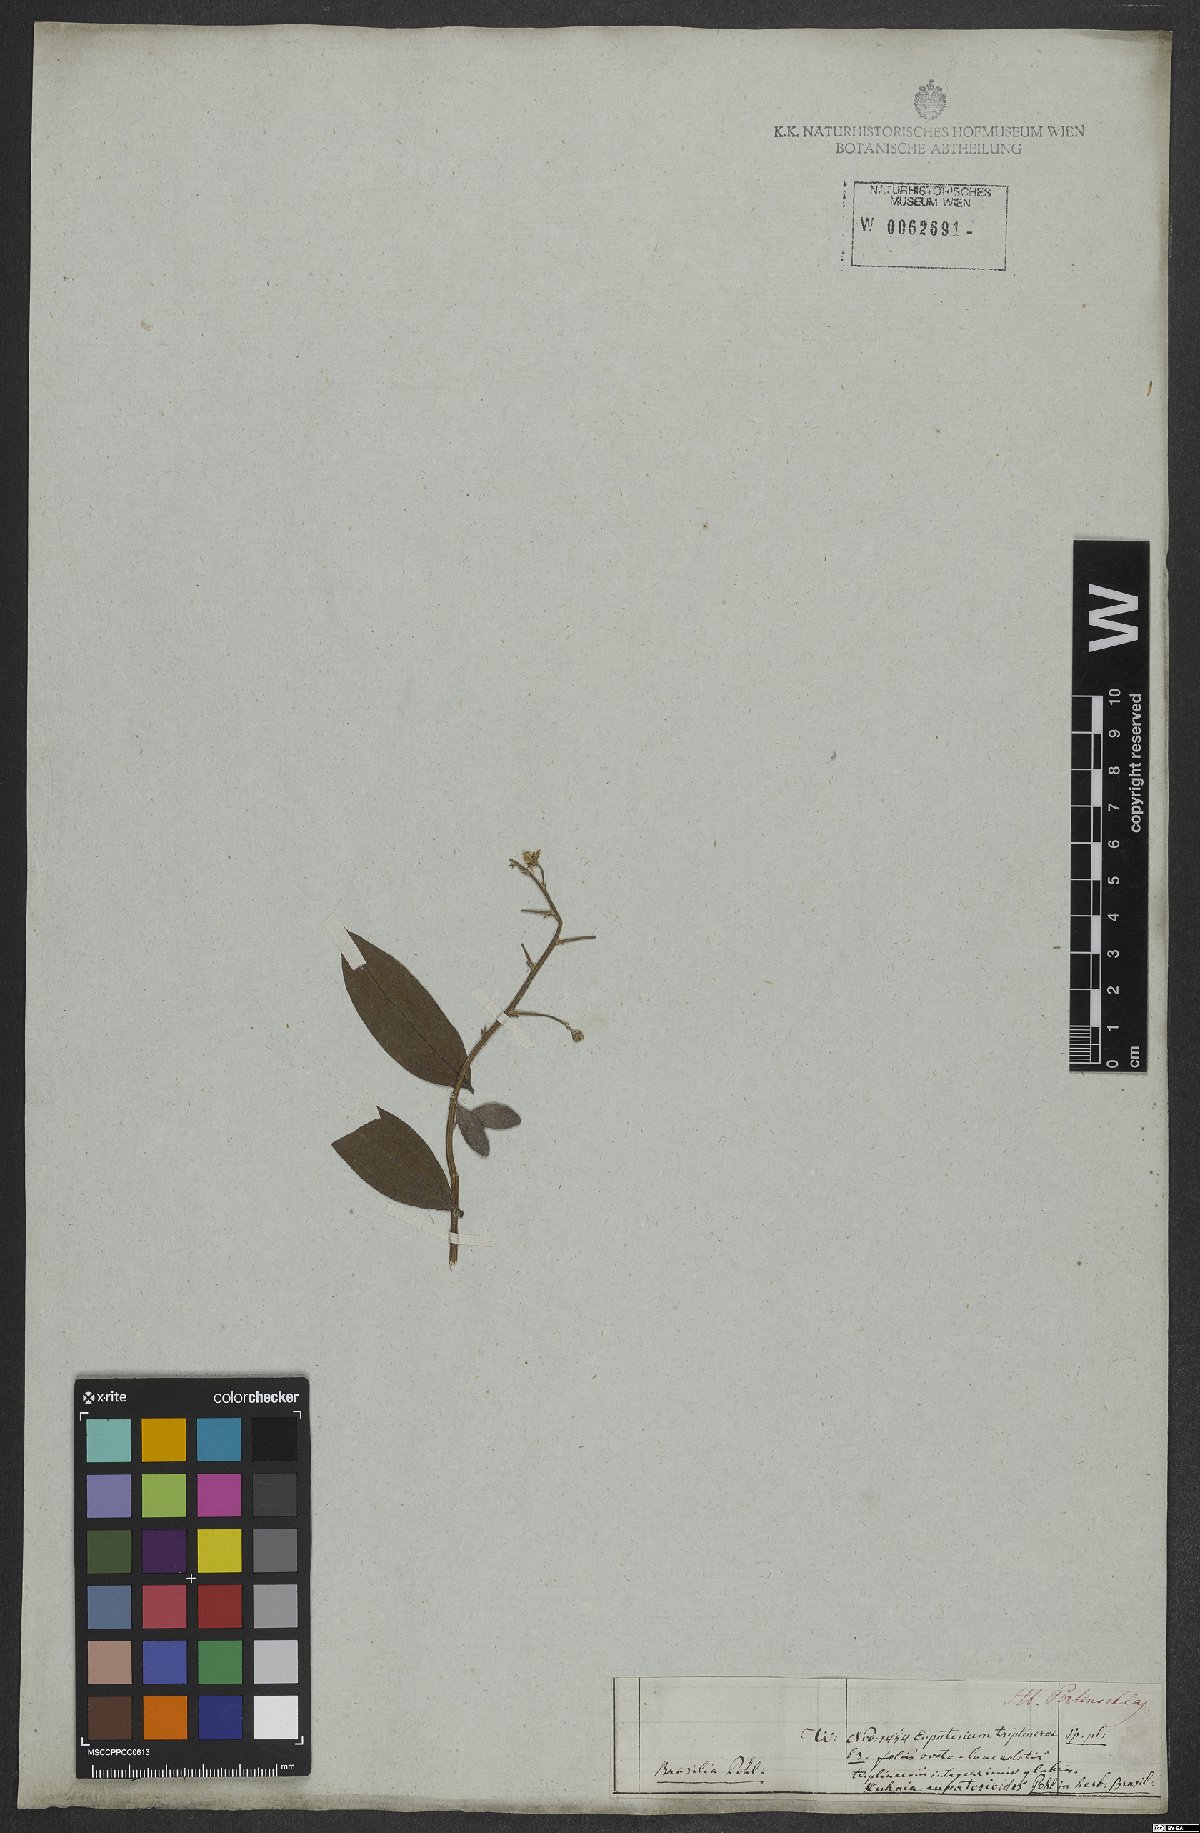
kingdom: Plantae
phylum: Tracheophyta
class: Magnoliopsida
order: Asterales
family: Asteraceae
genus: Ayapana
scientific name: Ayapana triplinervis
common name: Triplinerved eupatorium
